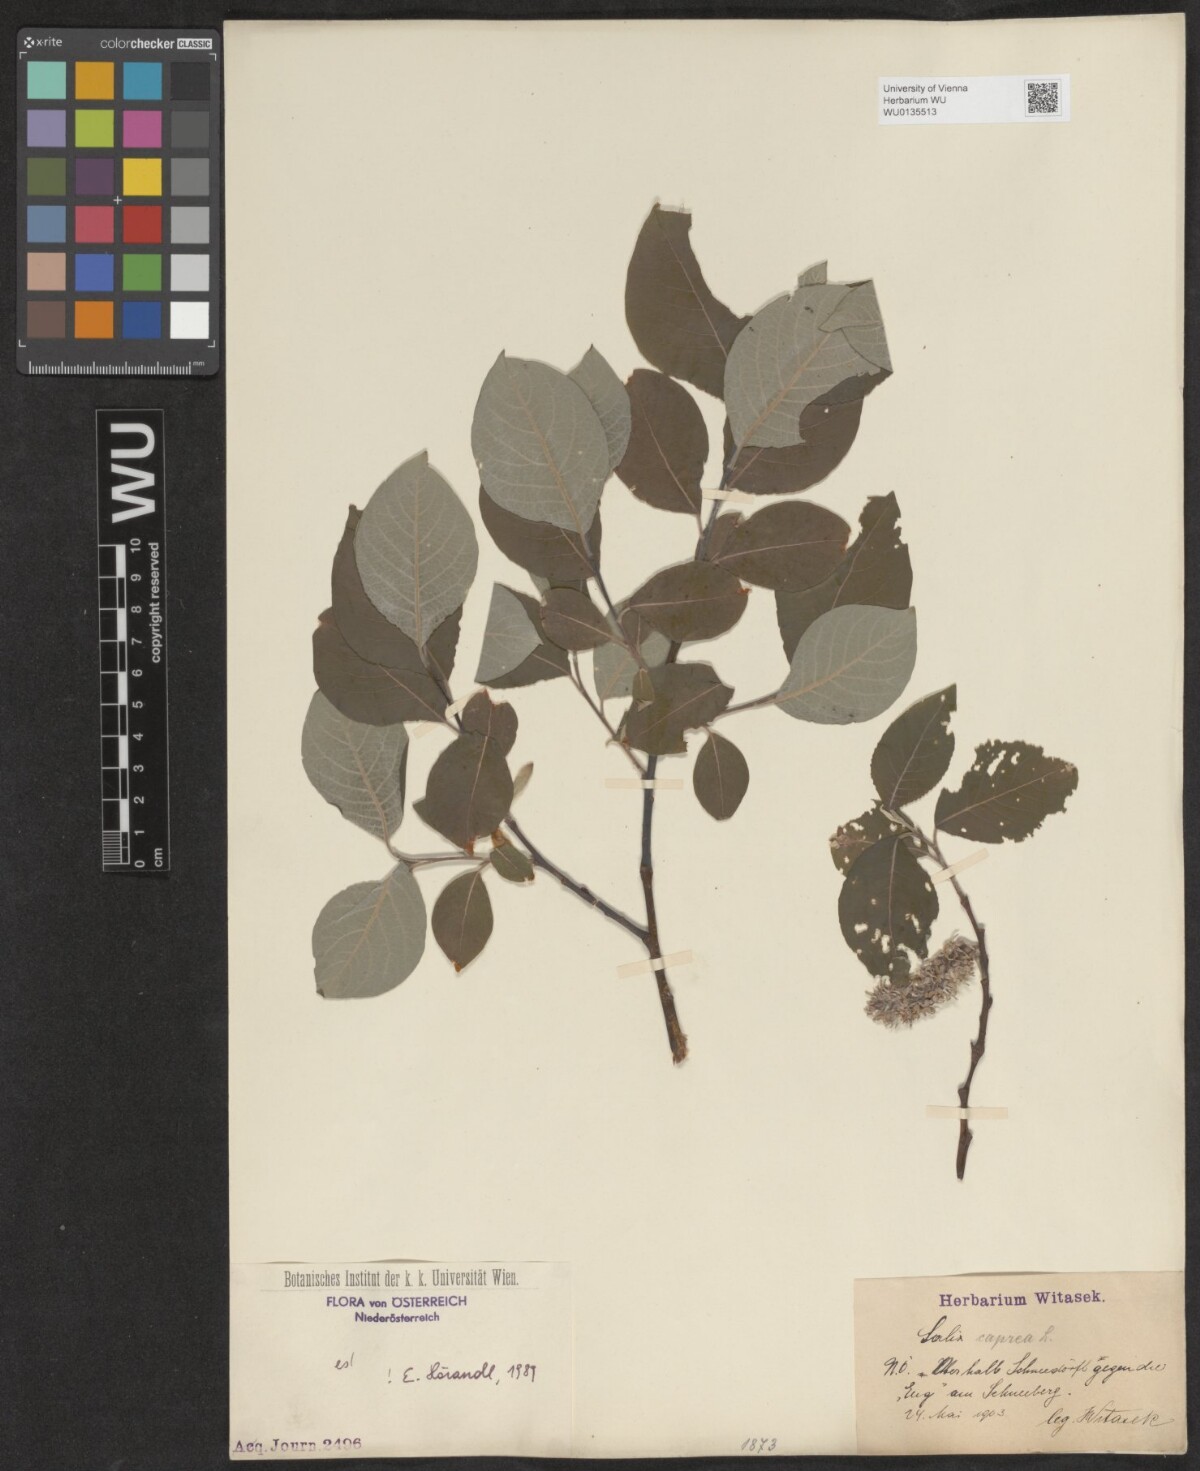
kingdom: Plantae
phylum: Tracheophyta
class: Magnoliopsida
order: Malpighiales
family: Salicaceae
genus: Salix
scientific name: Salix caprea
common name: Goat willow
